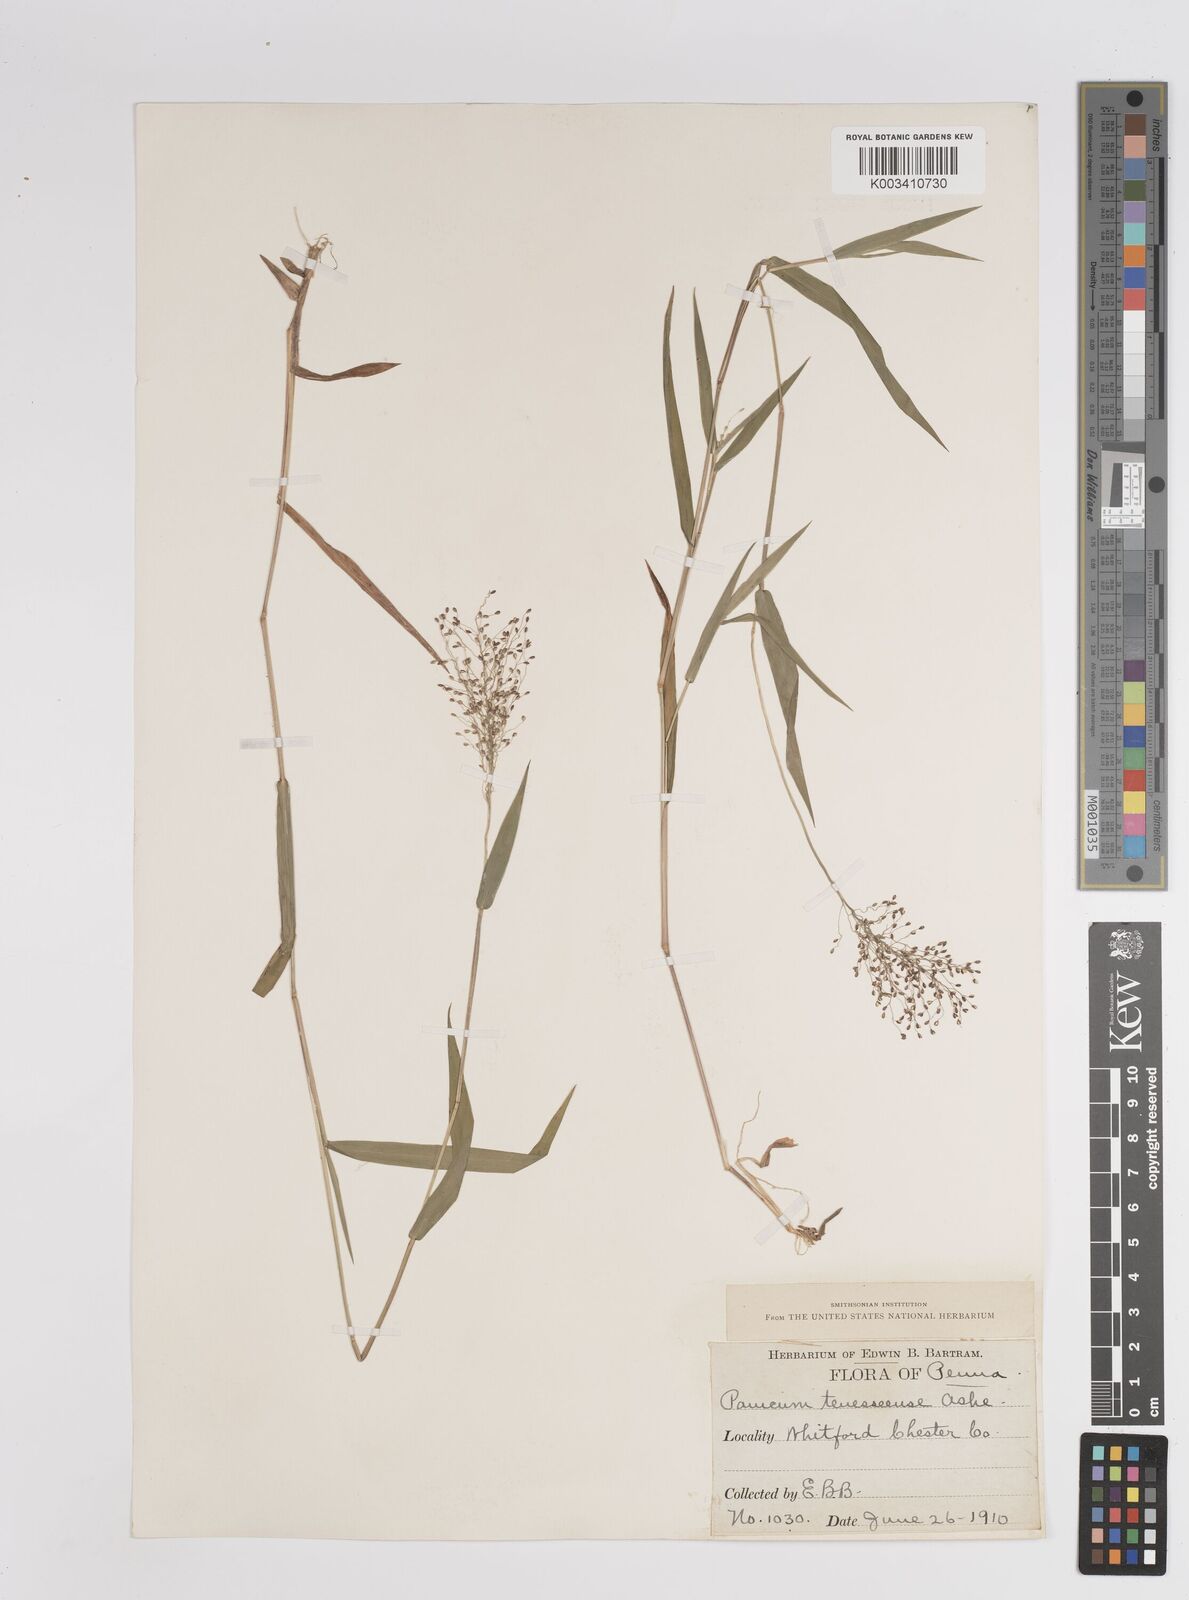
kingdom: Plantae
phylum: Tracheophyta
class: Liliopsida
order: Poales
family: Poaceae
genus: Dichanthelium
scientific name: Dichanthelium acuminatum
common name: Hairy panic grass
